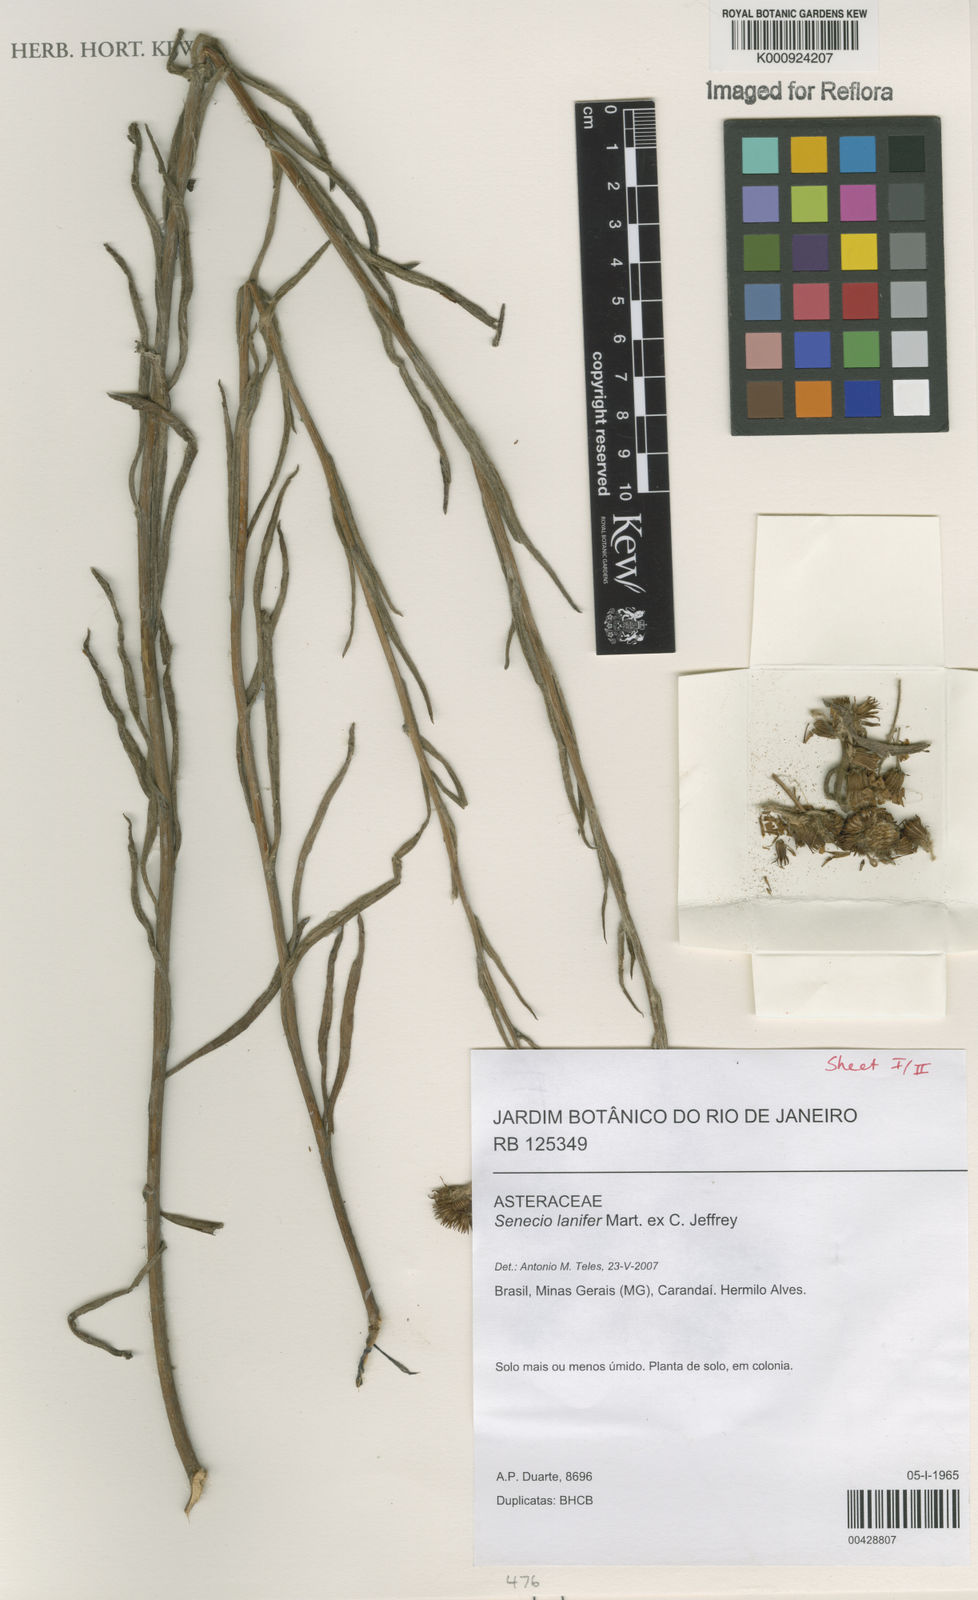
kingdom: Plantae
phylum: Tracheophyta
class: Magnoliopsida
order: Asterales
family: Asteraceae
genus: Senecio
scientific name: Senecio lanifer
